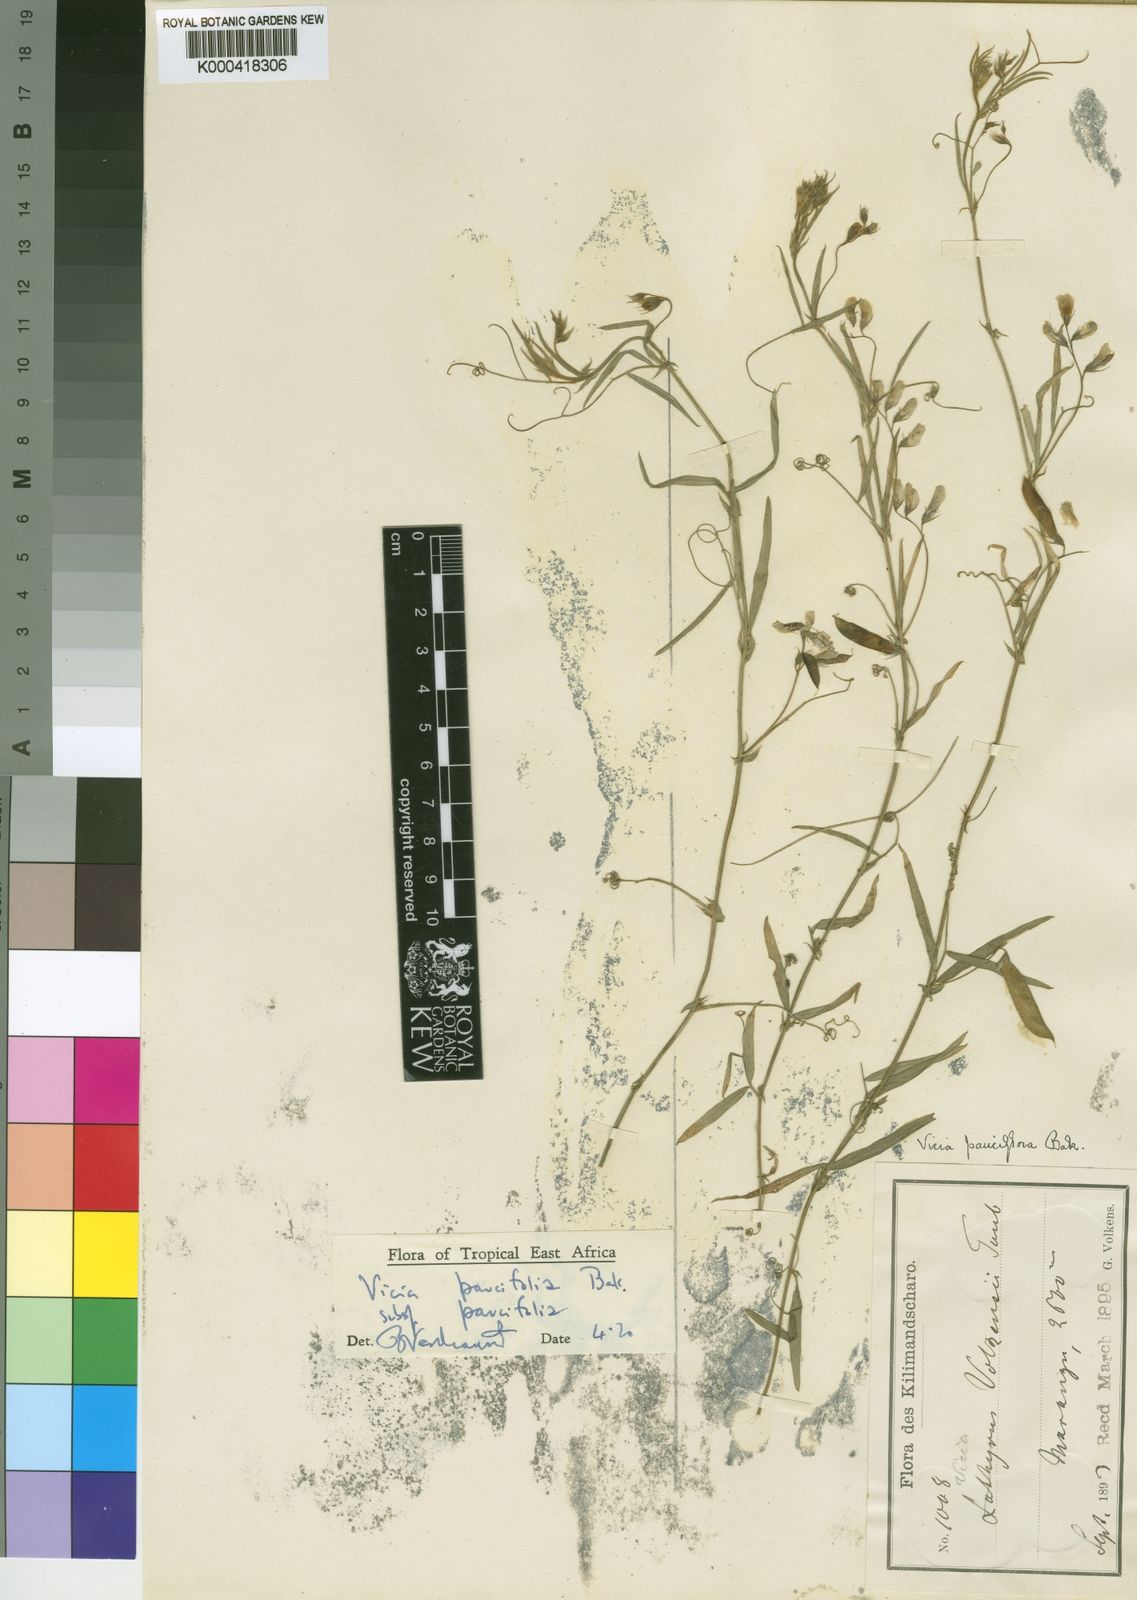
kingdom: Plantae
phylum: Tracheophyta
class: Magnoliopsida
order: Fabales
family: Fabaceae
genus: Vicia
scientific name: Vicia paucifolia
